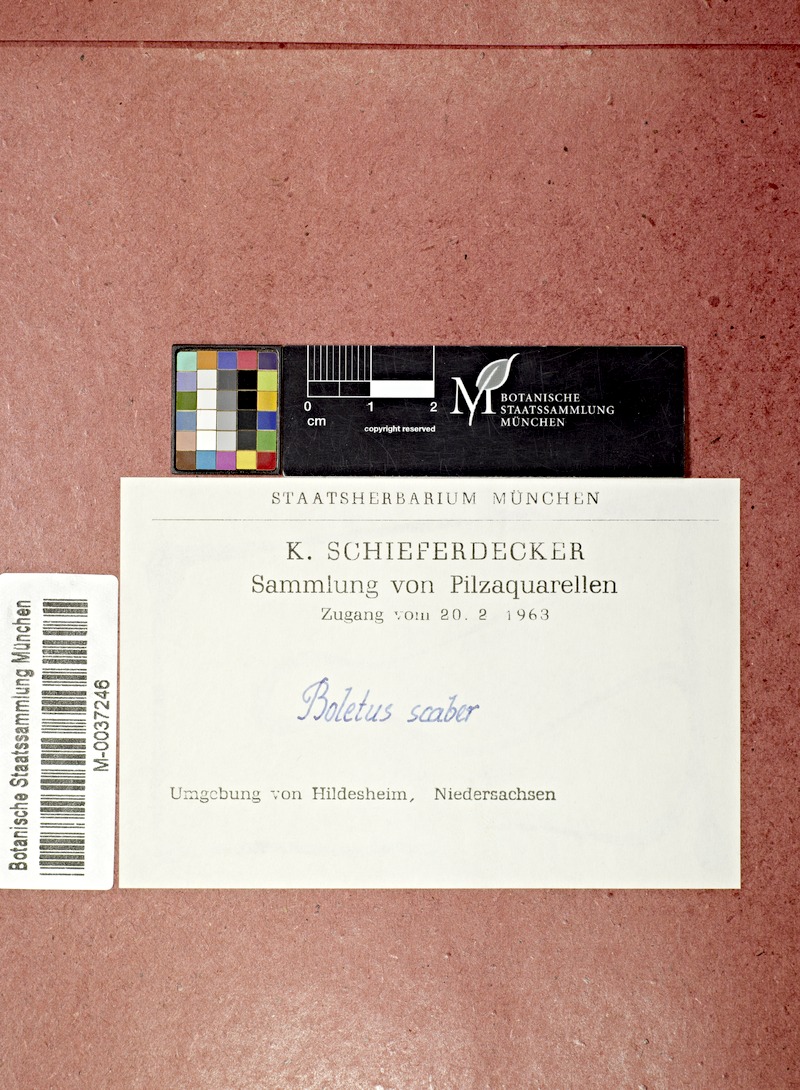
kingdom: Fungi
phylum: Basidiomycota
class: Agaricomycetes
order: Boletales
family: Boletaceae
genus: Leccinum
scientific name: Leccinum scabrum
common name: Blushing bolete
